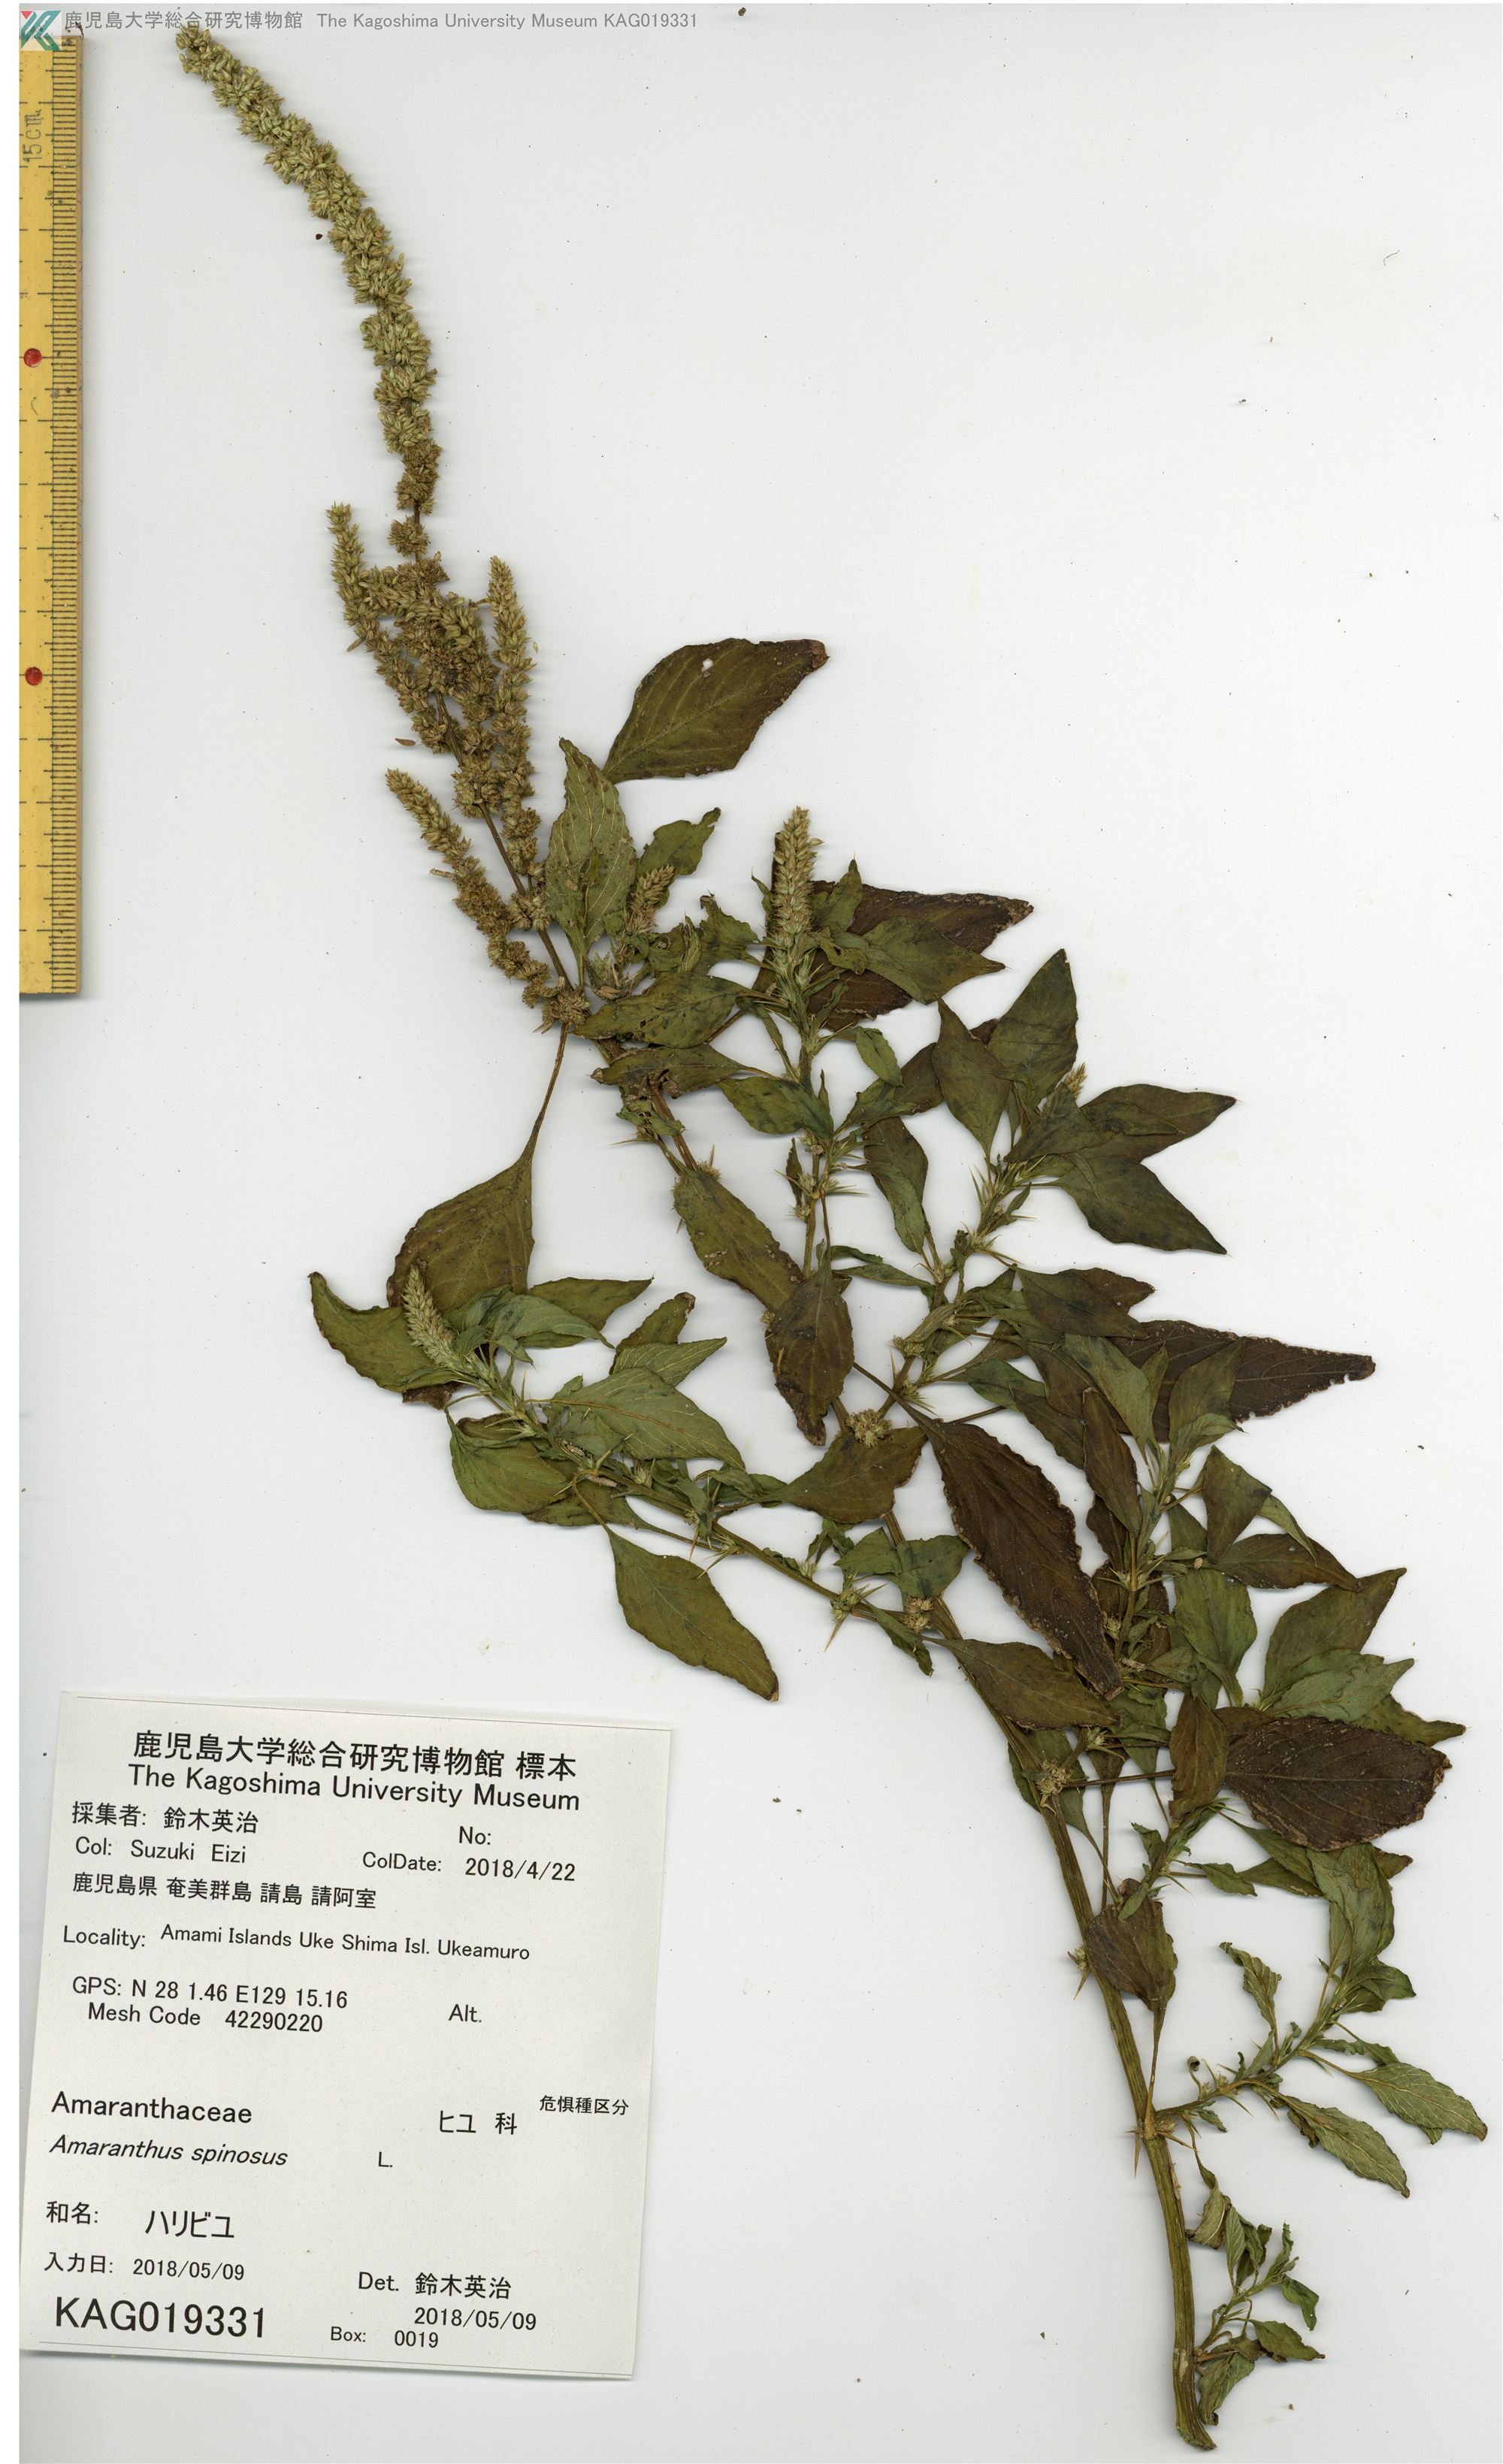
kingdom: Plantae
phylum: Tracheophyta
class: Magnoliopsida
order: Caryophyllales
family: Amaranthaceae
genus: Amaranthus
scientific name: Amaranthus spinosus
